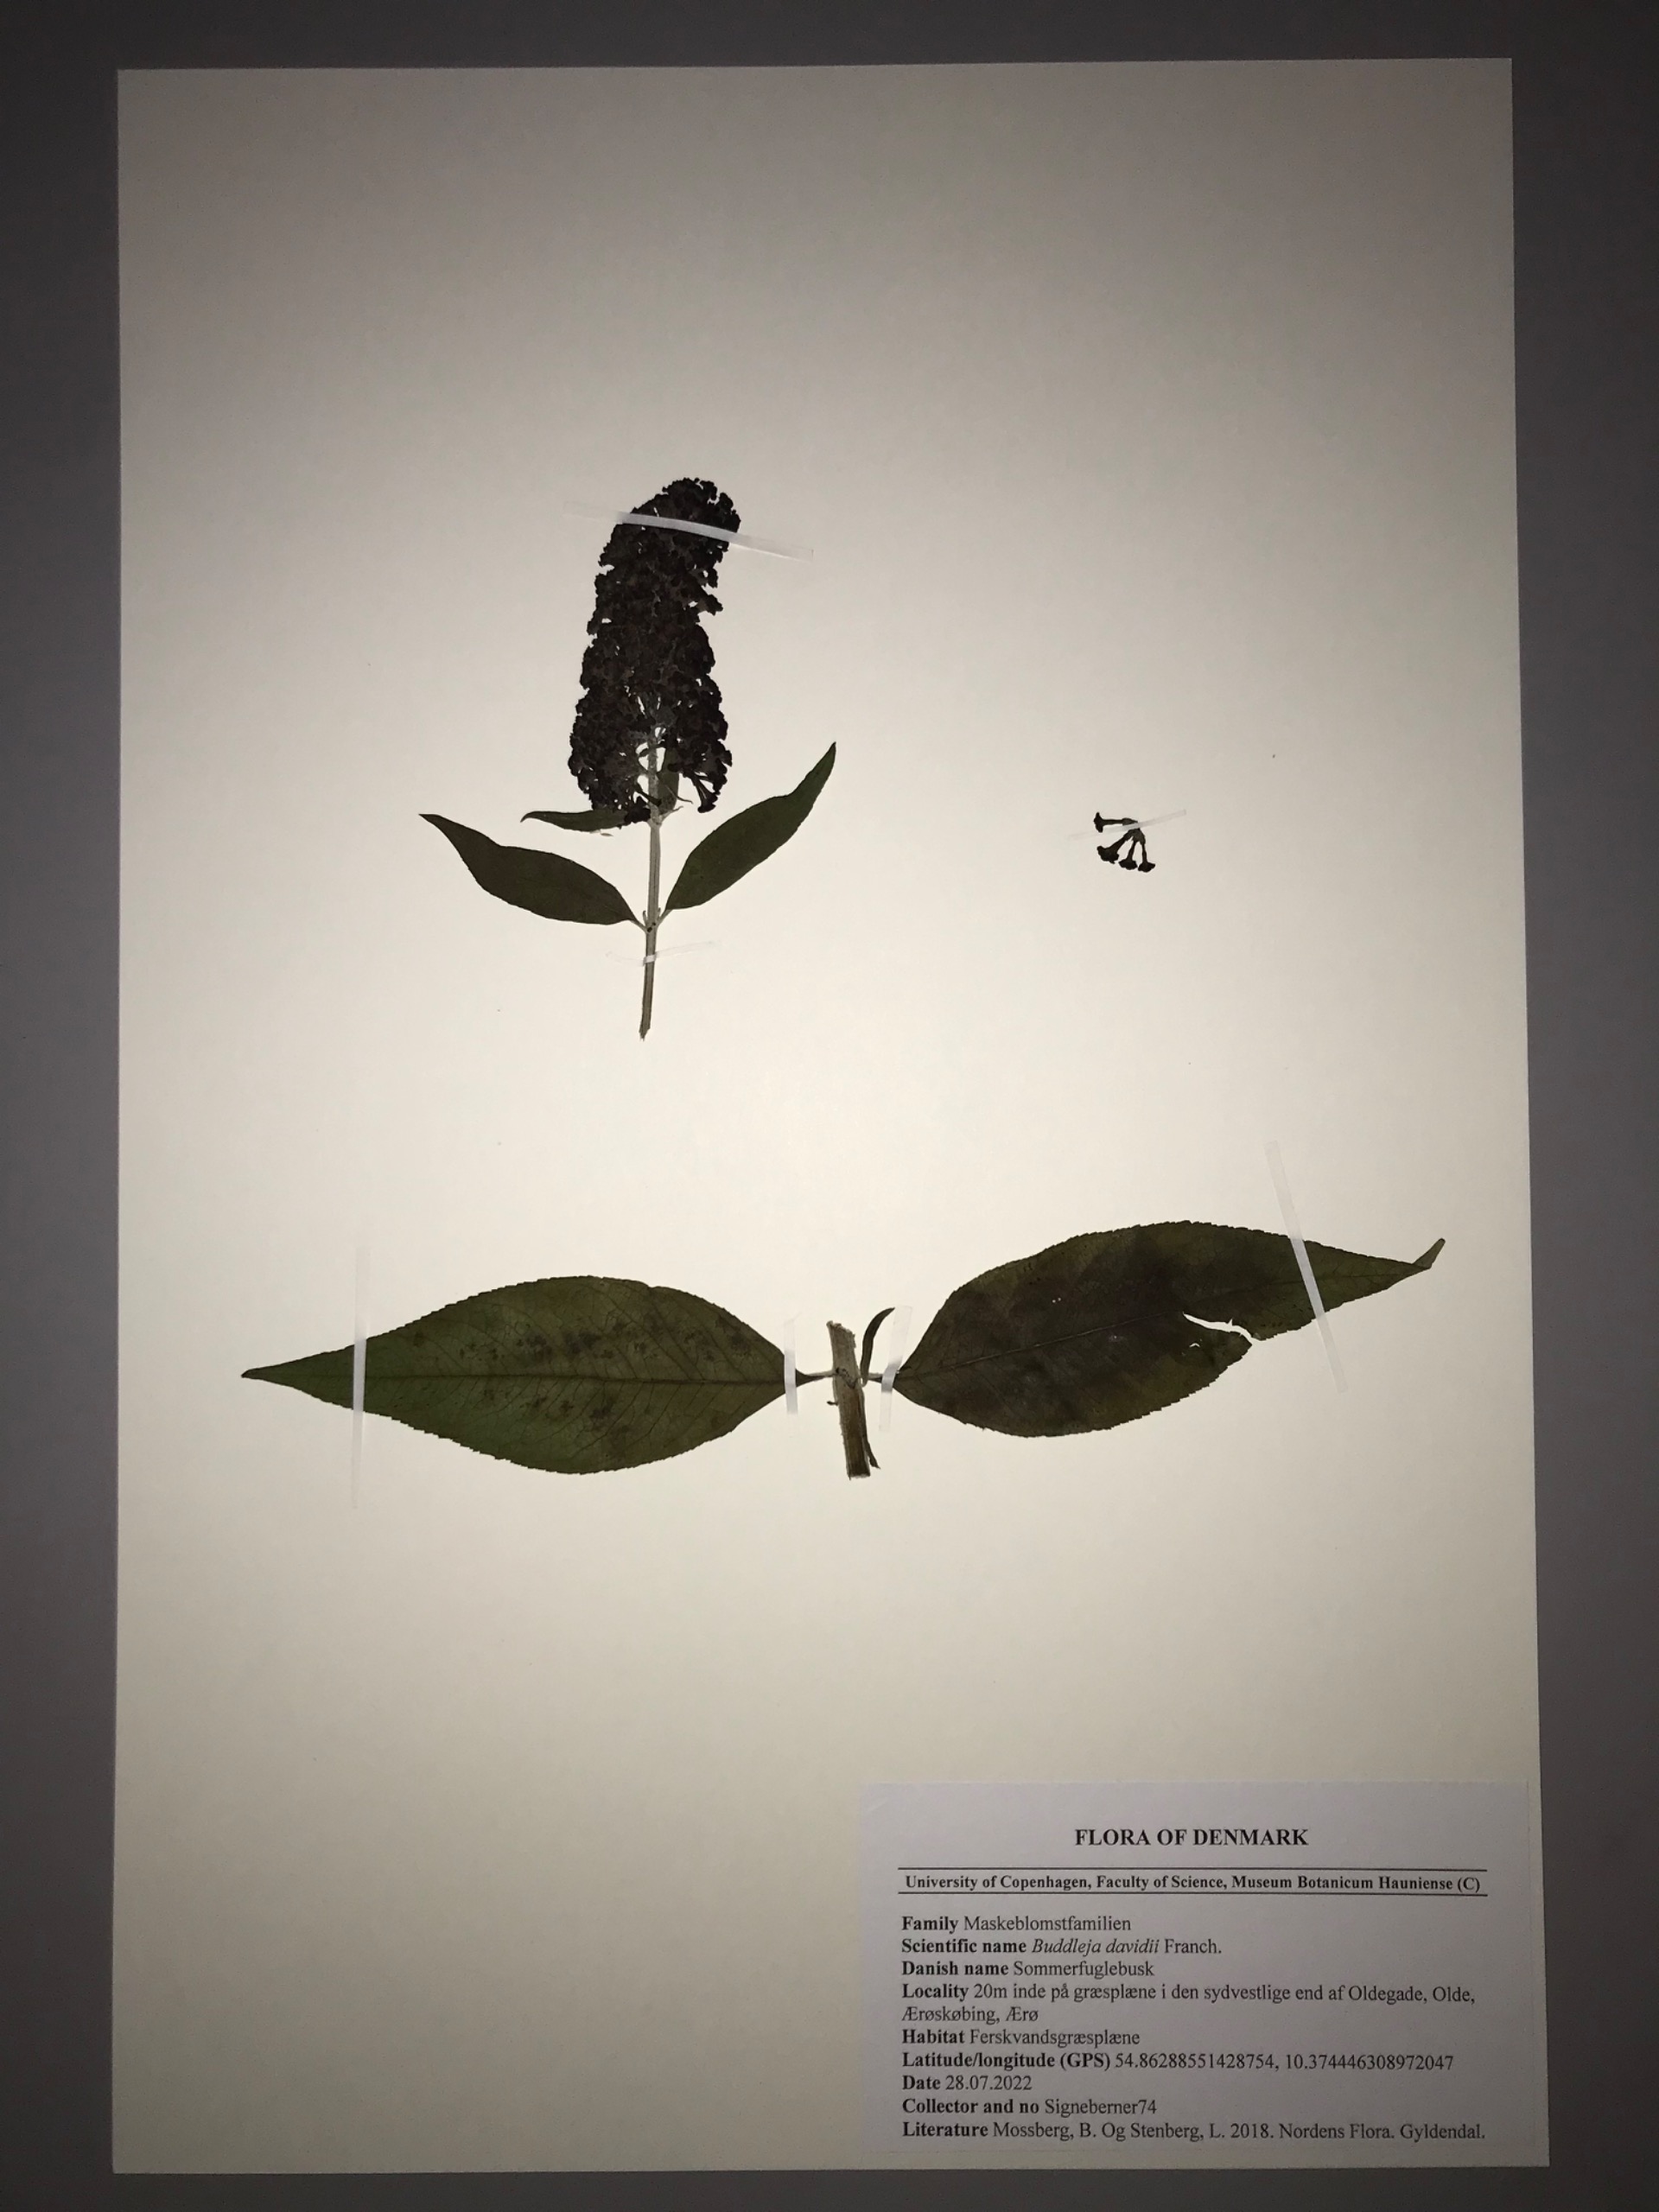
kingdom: Plantae
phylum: Tracheophyta
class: Magnoliopsida
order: Lamiales
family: Scrophulariaceae
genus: Buddleja
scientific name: Buddleja davidii
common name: Sommerfuglebusk
